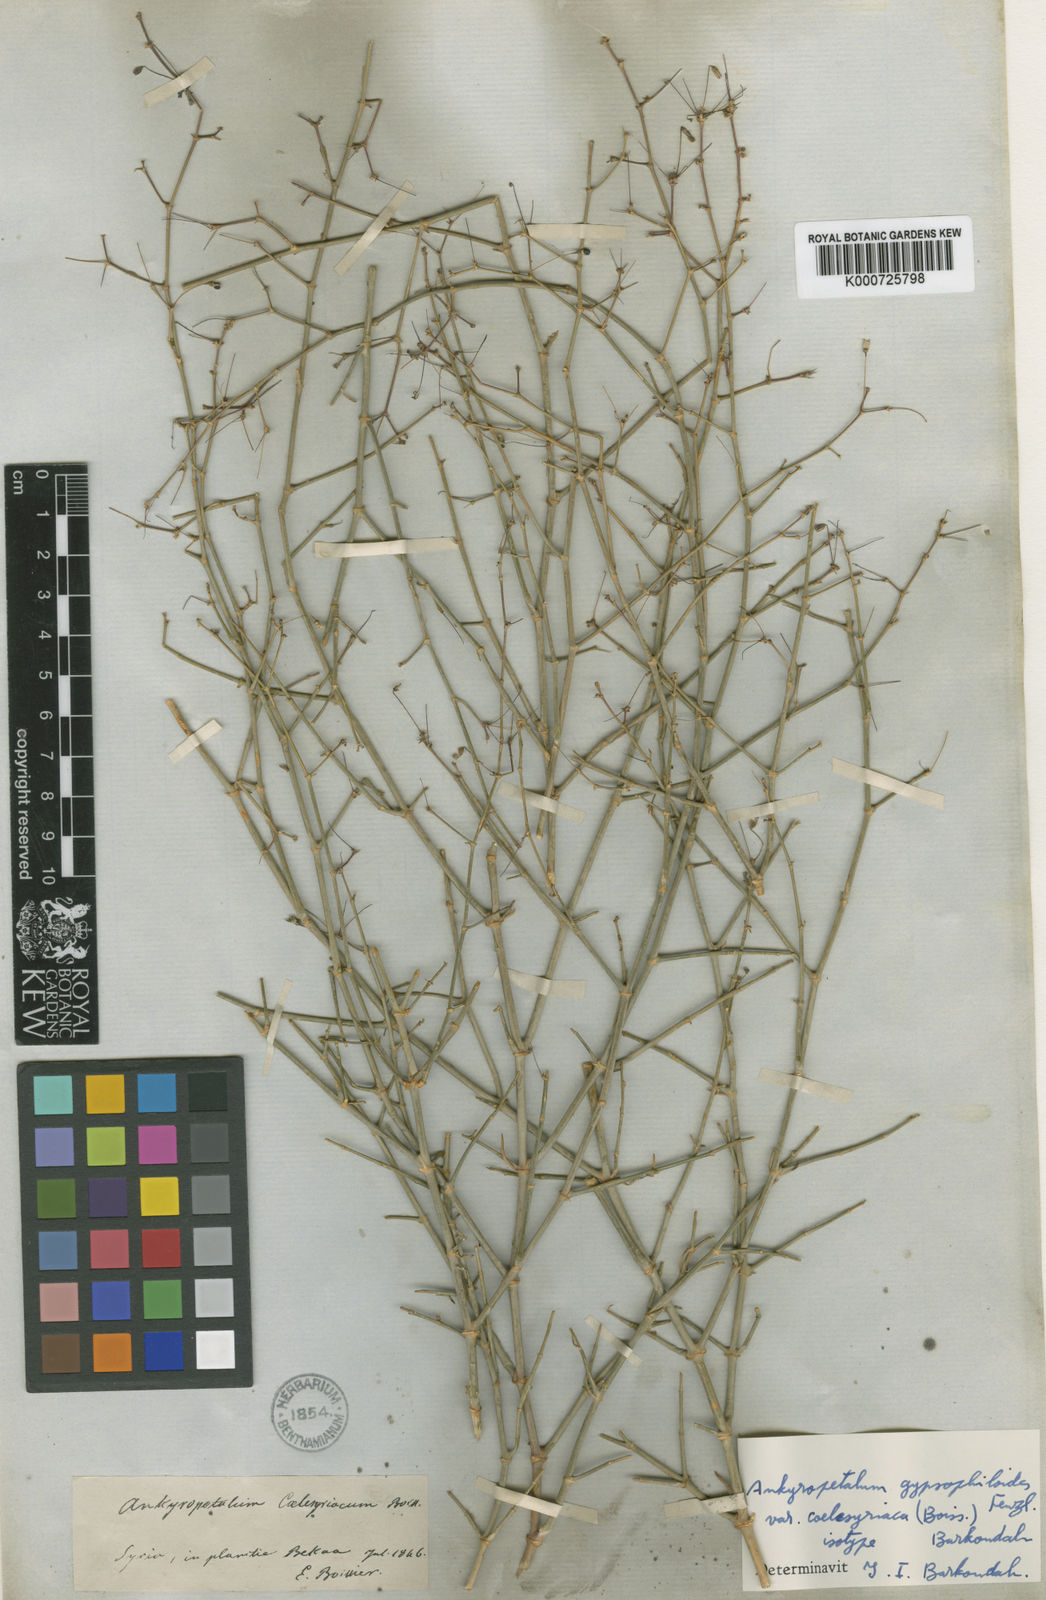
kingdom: Plantae
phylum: Tracheophyta
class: Magnoliopsida
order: Caryophyllales
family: Caryophyllaceae
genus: Mesostemma
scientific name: Mesostemma gypsophiloides
